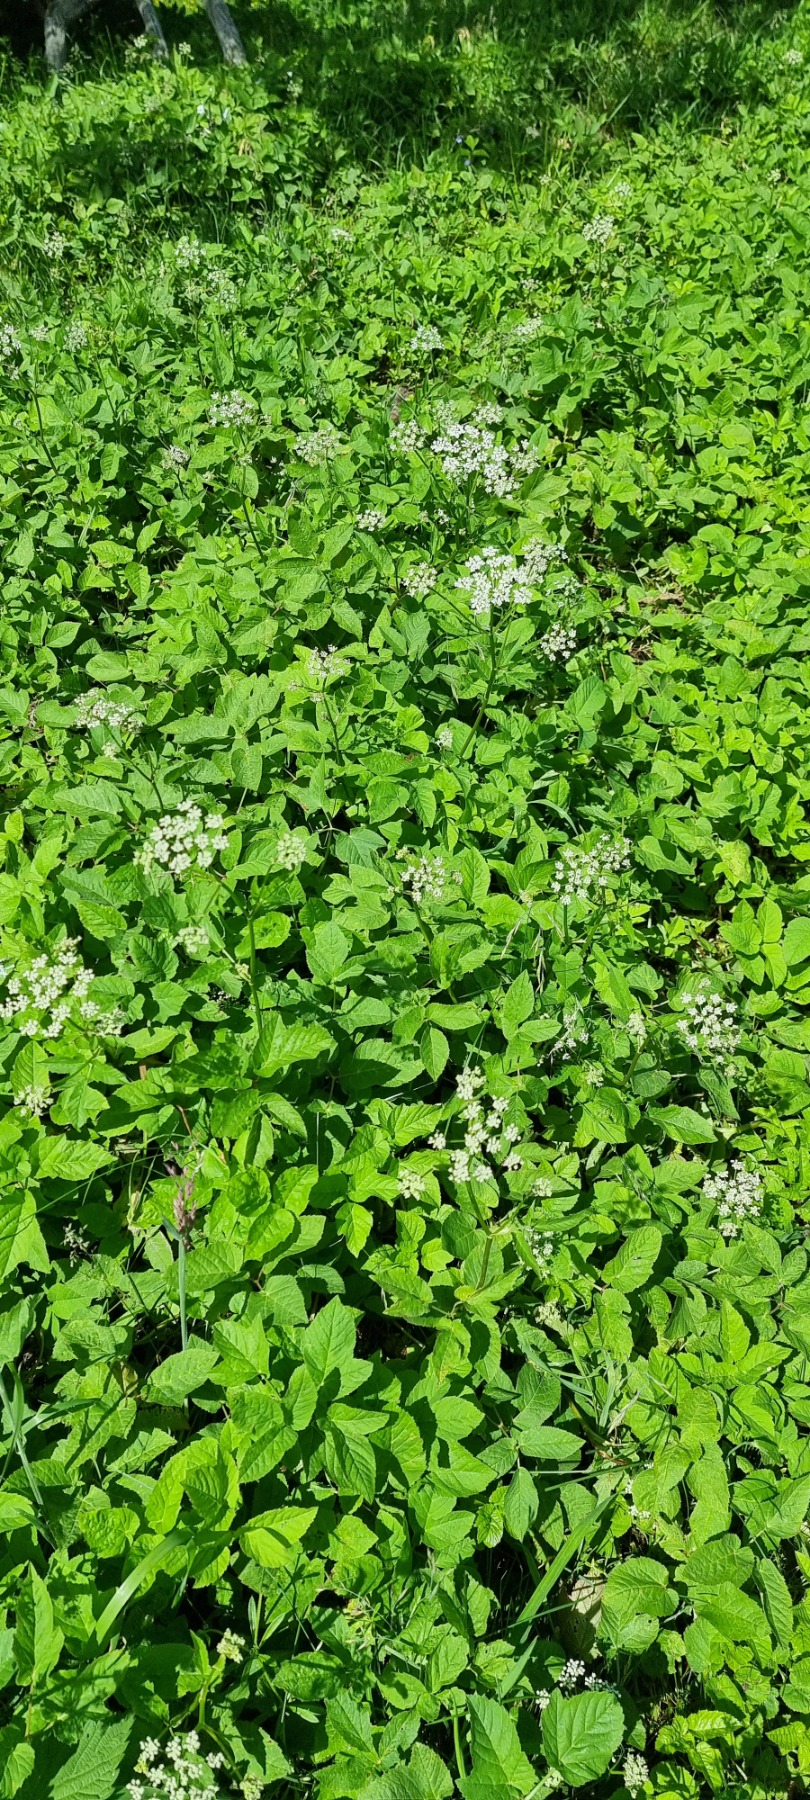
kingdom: Plantae
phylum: Tracheophyta
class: Magnoliopsida
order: Apiales
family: Apiaceae
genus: Aegopodium
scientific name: Aegopodium podagraria
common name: Skvalderkål
